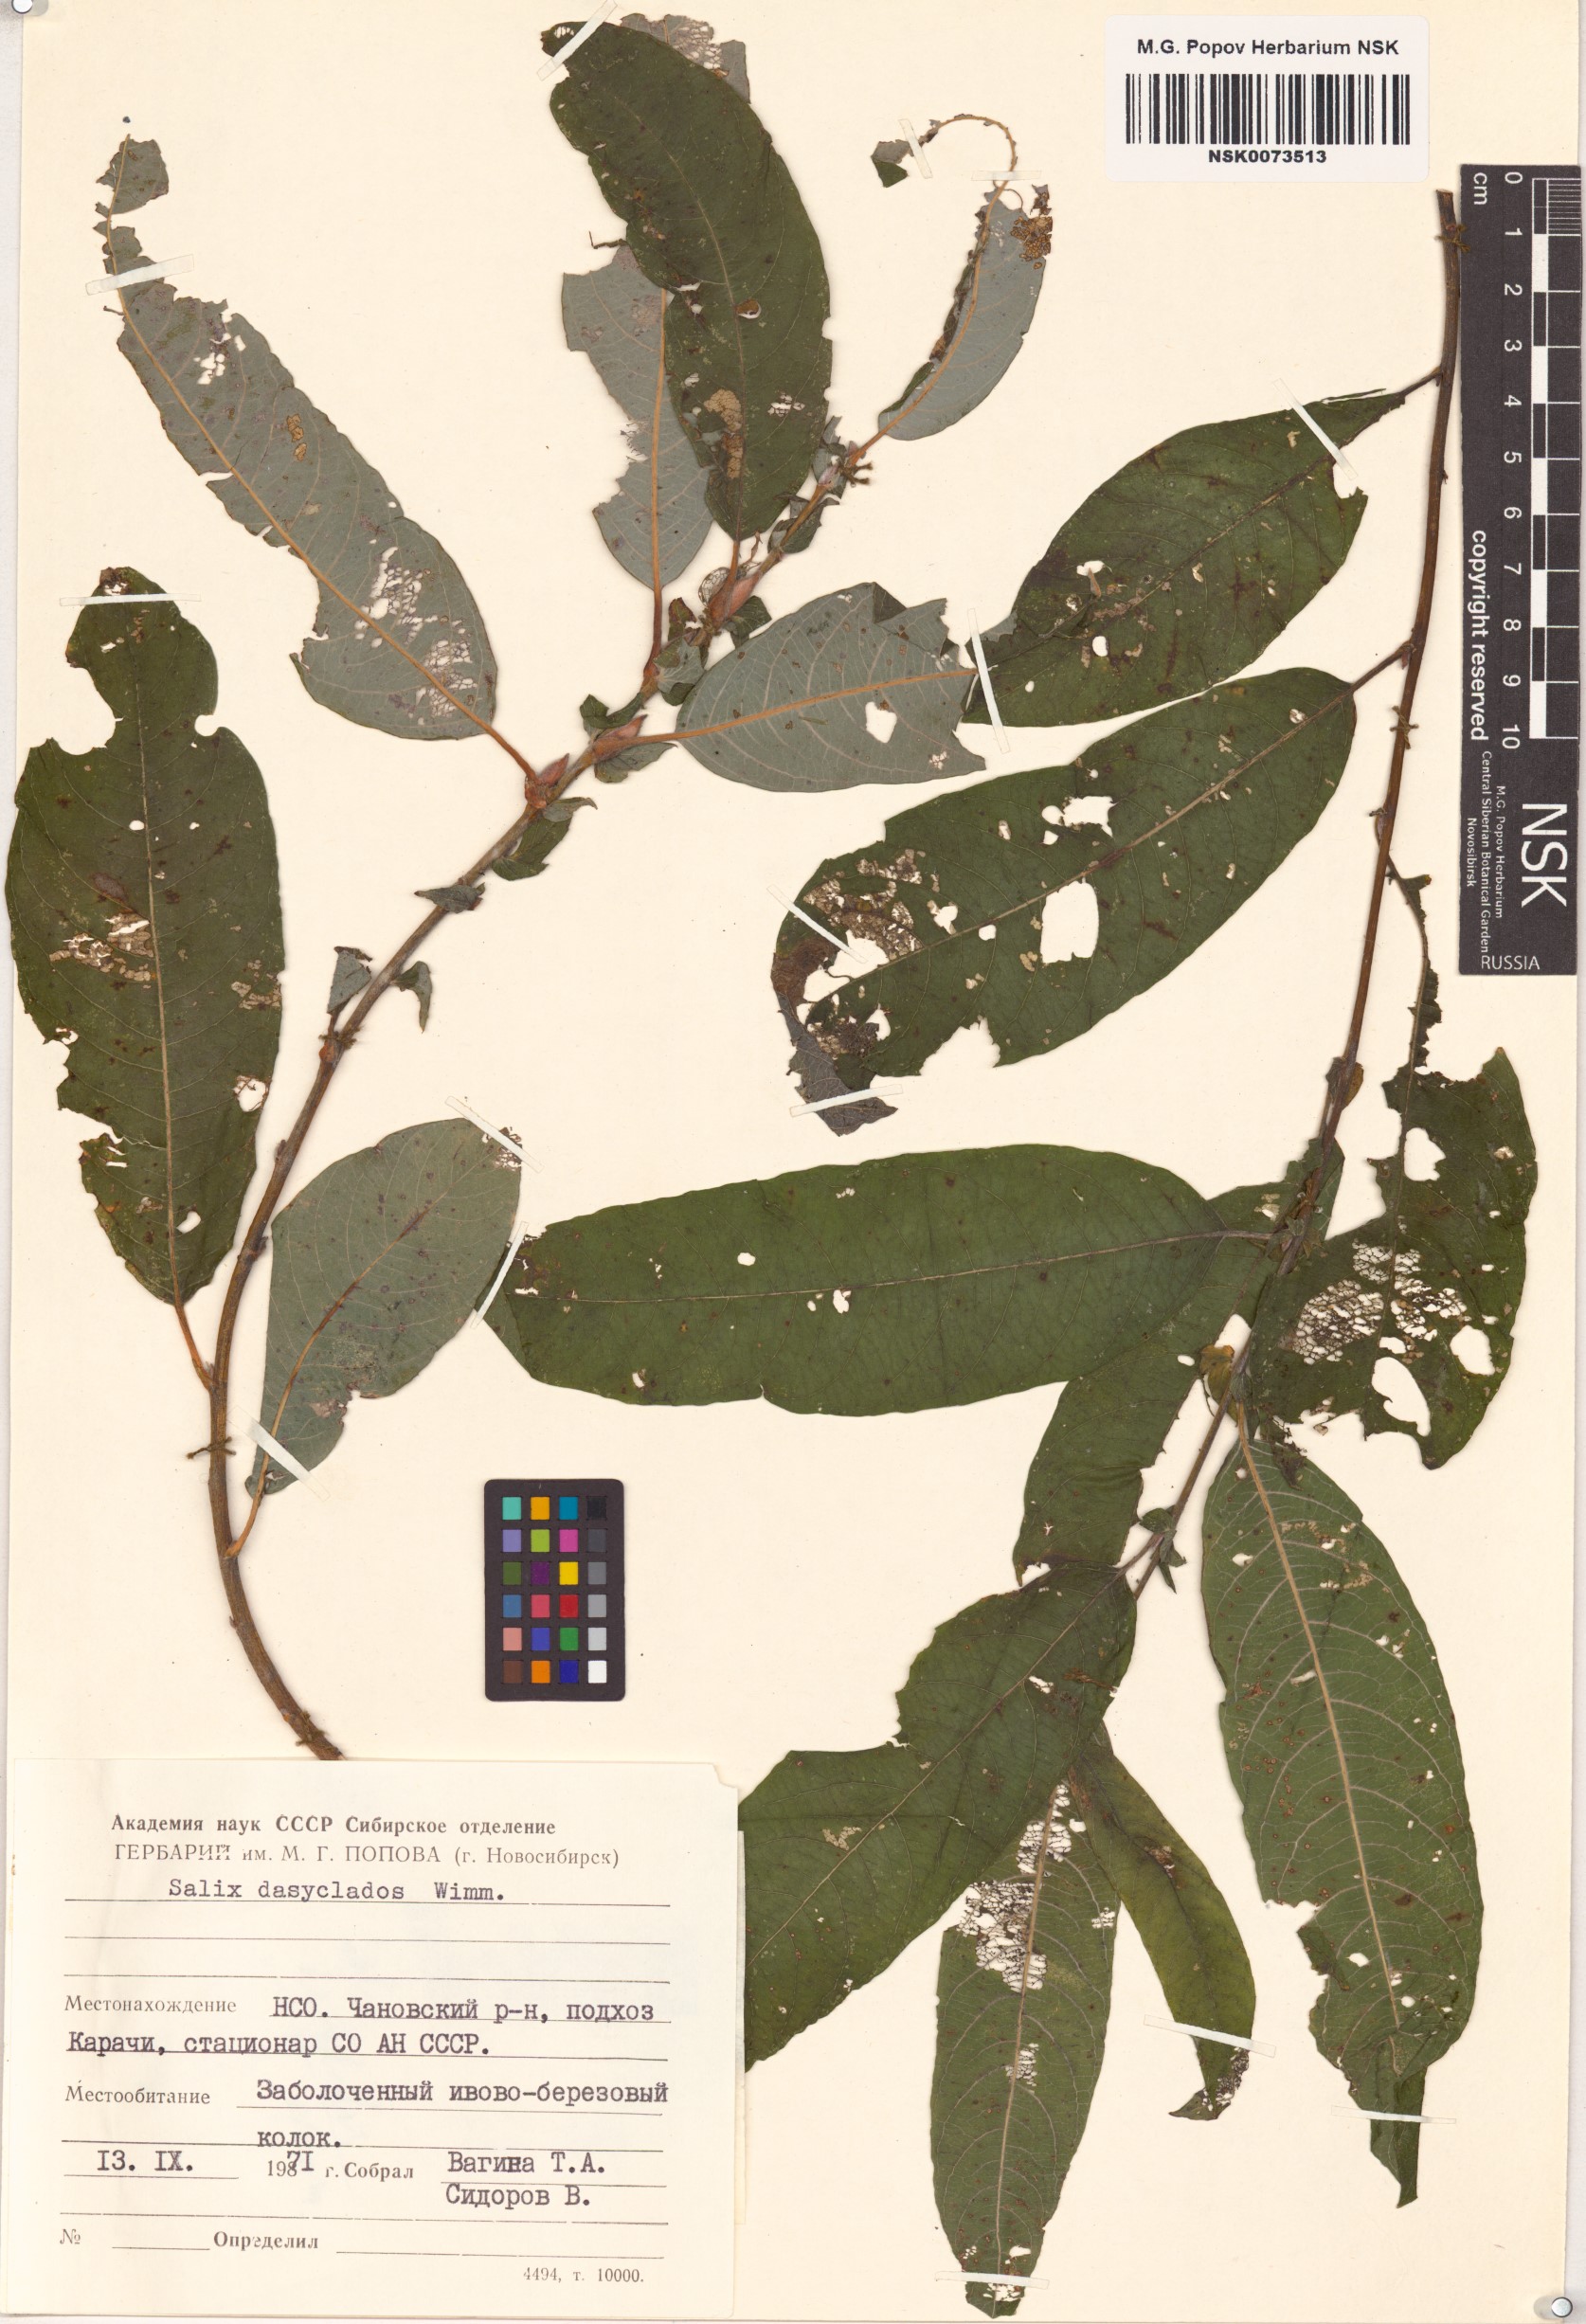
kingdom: Plantae
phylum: Tracheophyta
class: Magnoliopsida
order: Malpighiales
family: Salicaceae
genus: Salix
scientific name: Salix gmelinii
